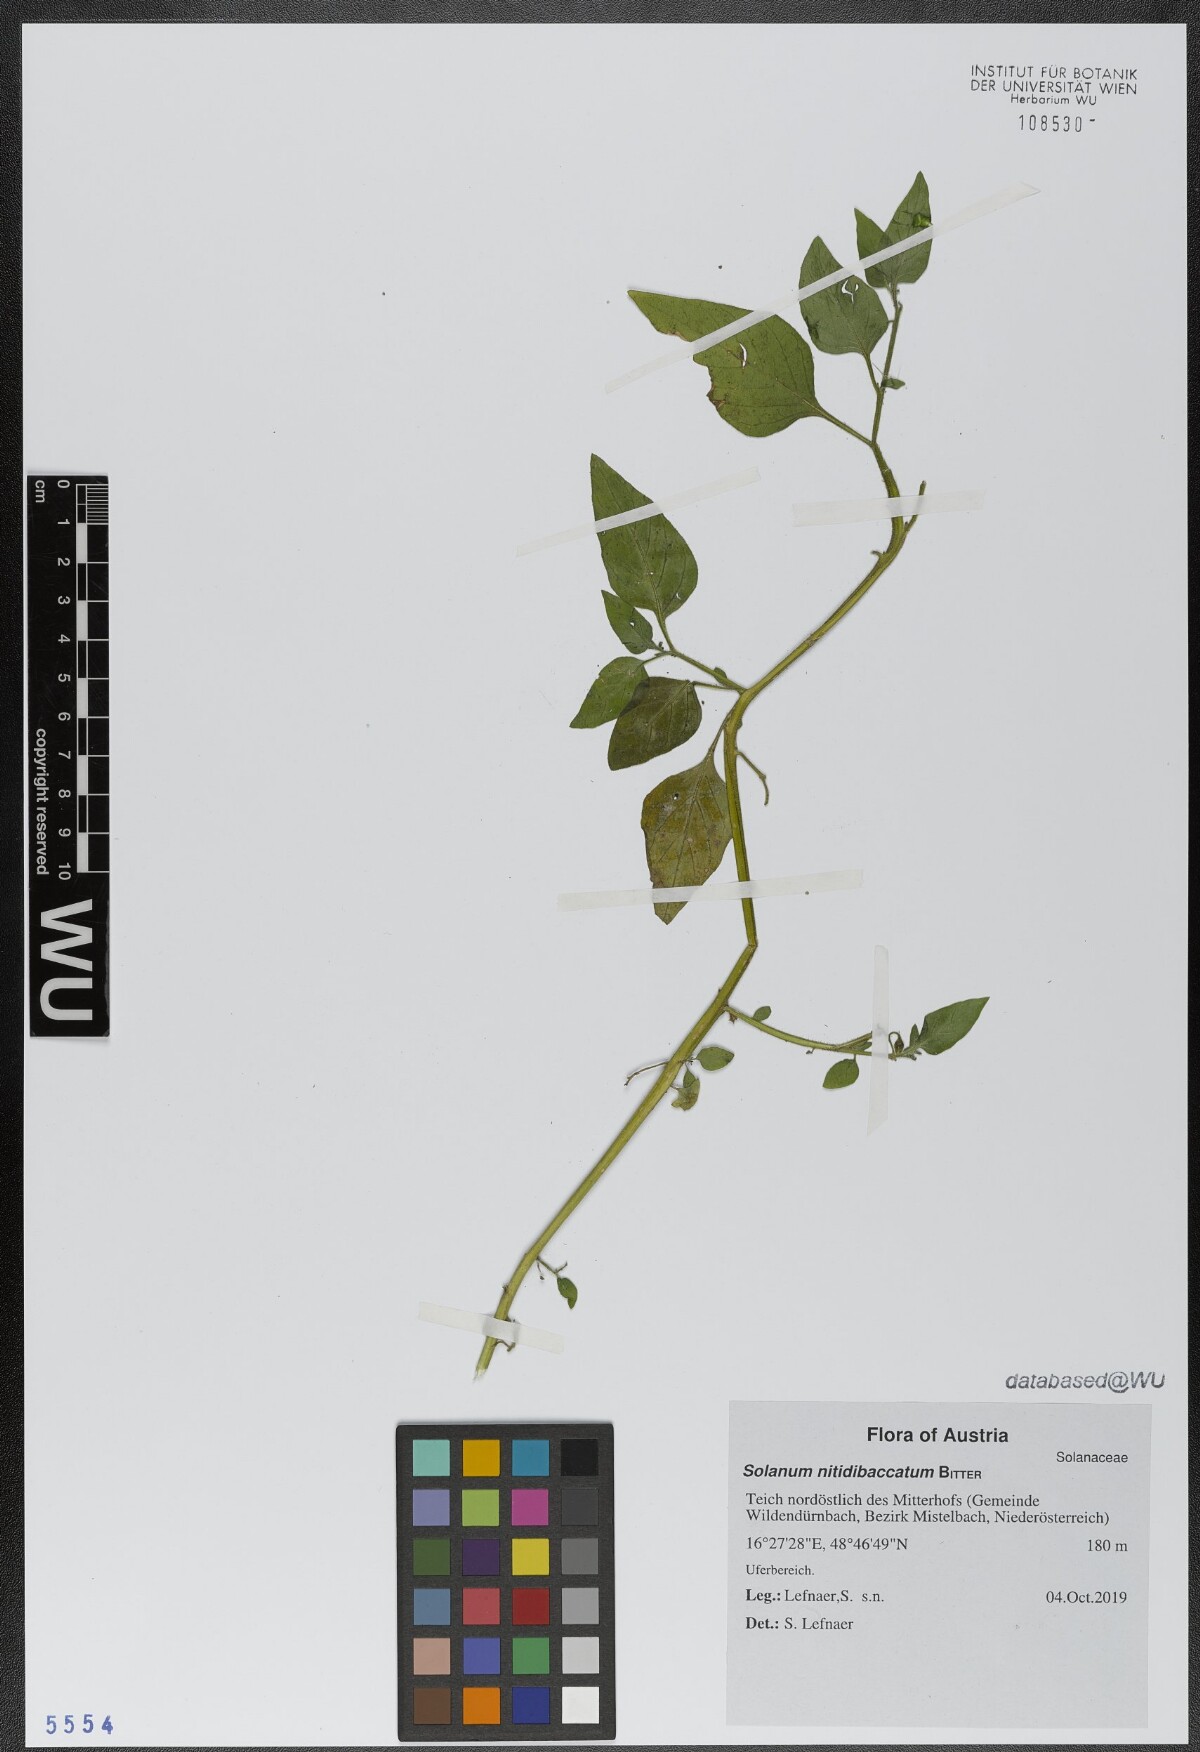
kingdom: Plantae
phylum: Tracheophyta
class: Magnoliopsida
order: Solanales
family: Solanaceae
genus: Solanum
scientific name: Solanum nitidibaccatum
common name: Hairy nightshade
